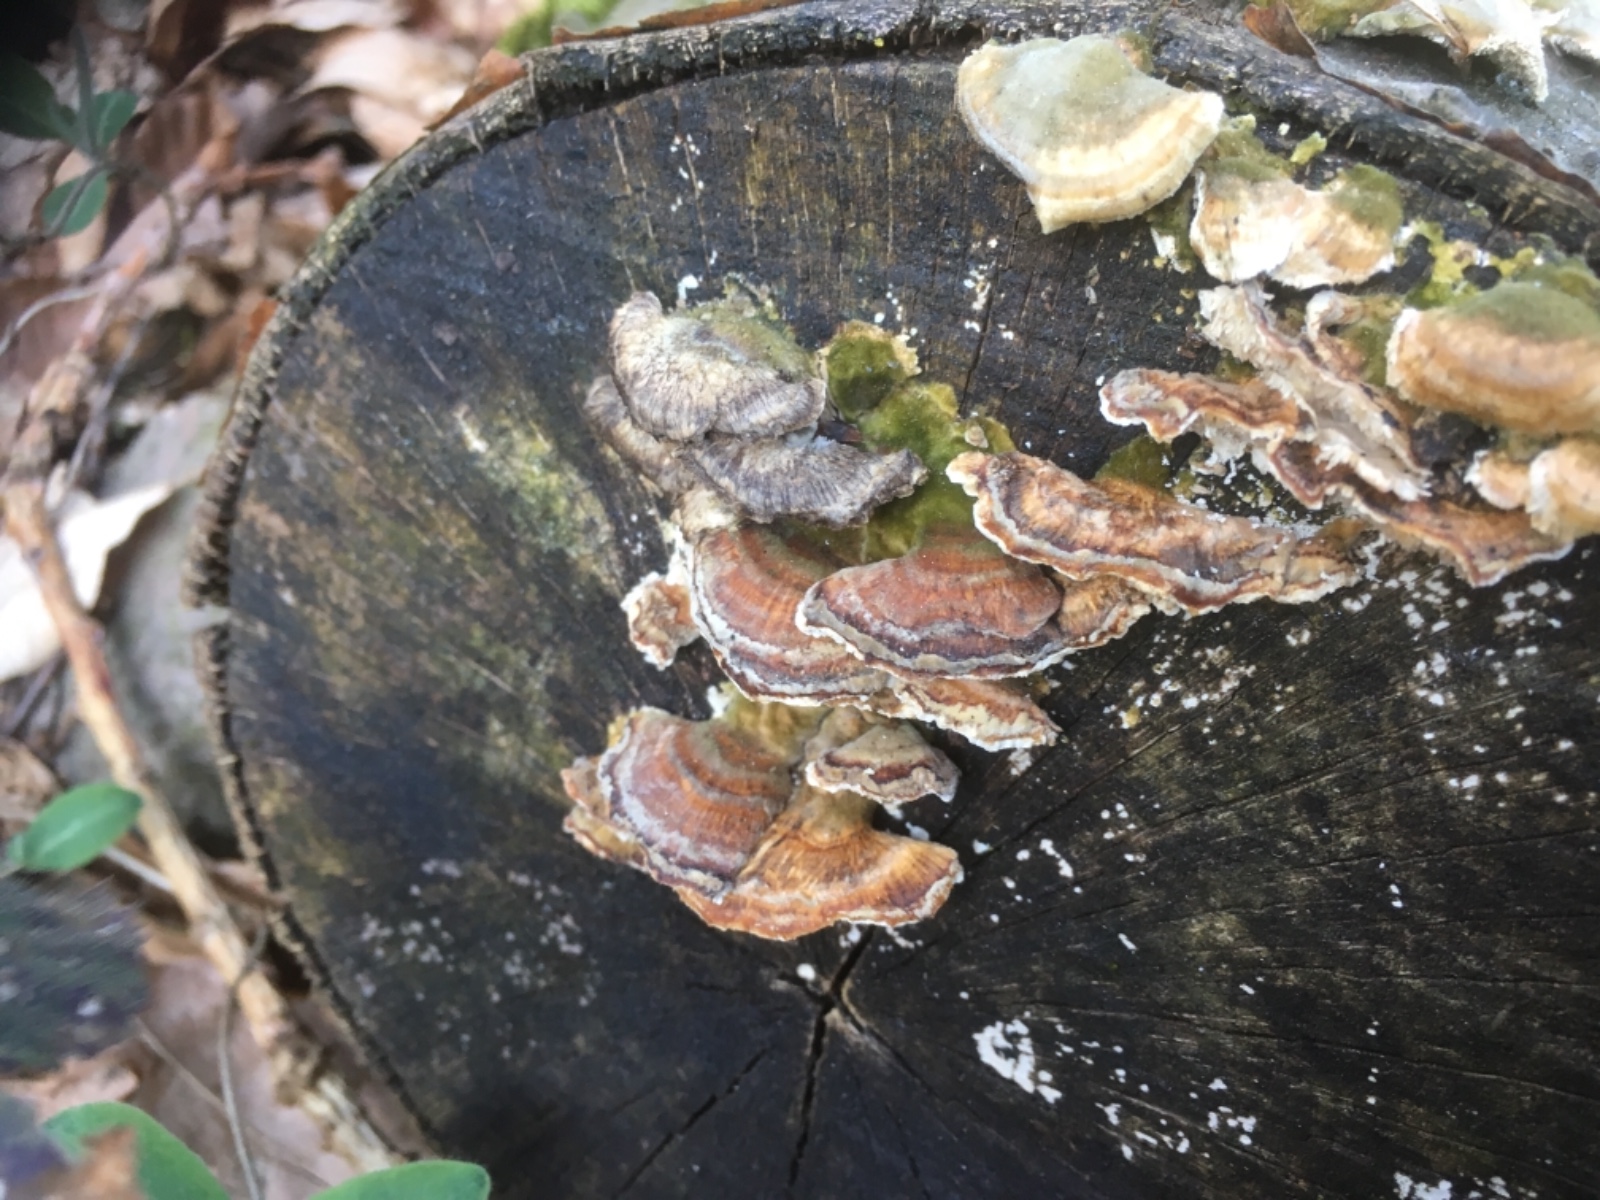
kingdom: Fungi
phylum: Basidiomycota
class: Agaricomycetes
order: Russulales
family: Stereaceae
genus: Stereum
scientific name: Stereum hirsutum
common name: håret lædersvamp
